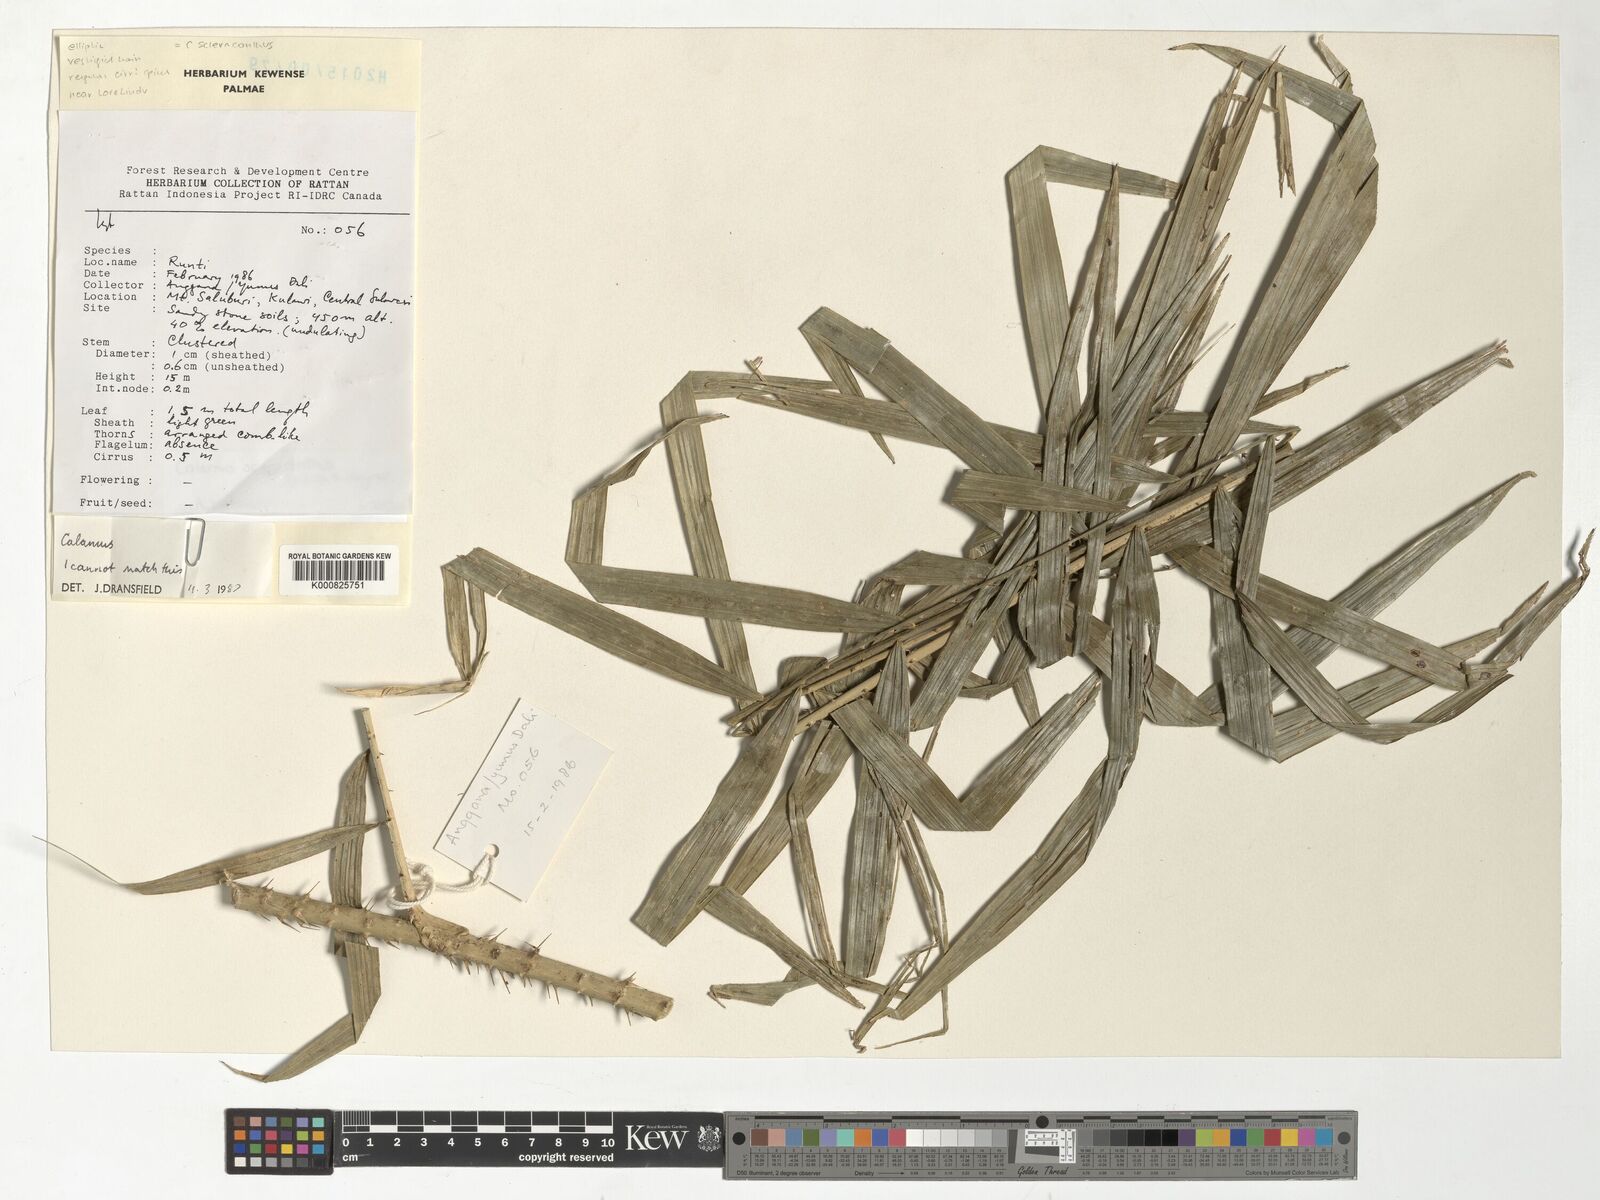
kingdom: Plantae
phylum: Tracheophyta
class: Liliopsida
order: Arecales
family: Arecaceae
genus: Calamus
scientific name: Calamus scleracanthus
